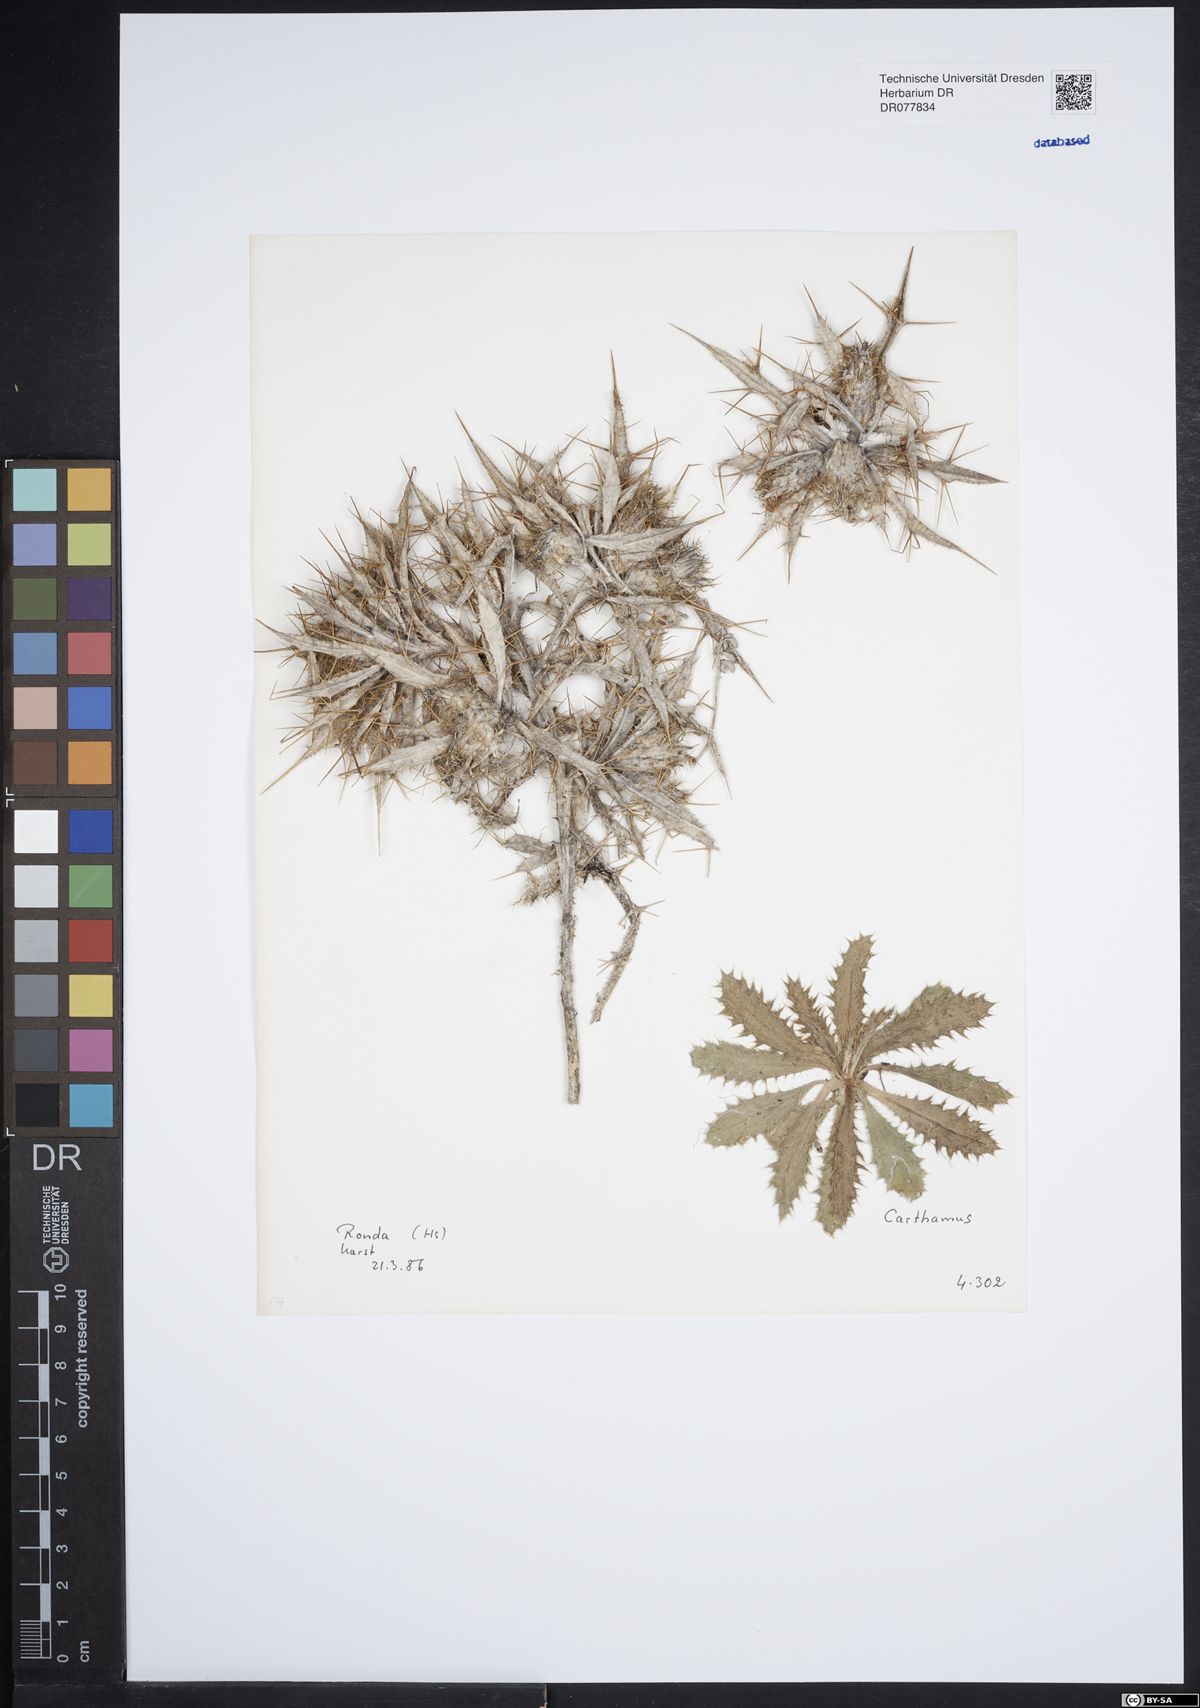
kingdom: Plantae
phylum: Tracheophyta
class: Magnoliopsida
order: Asterales
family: Asteraceae
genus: Carthamus
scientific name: Carthamus
